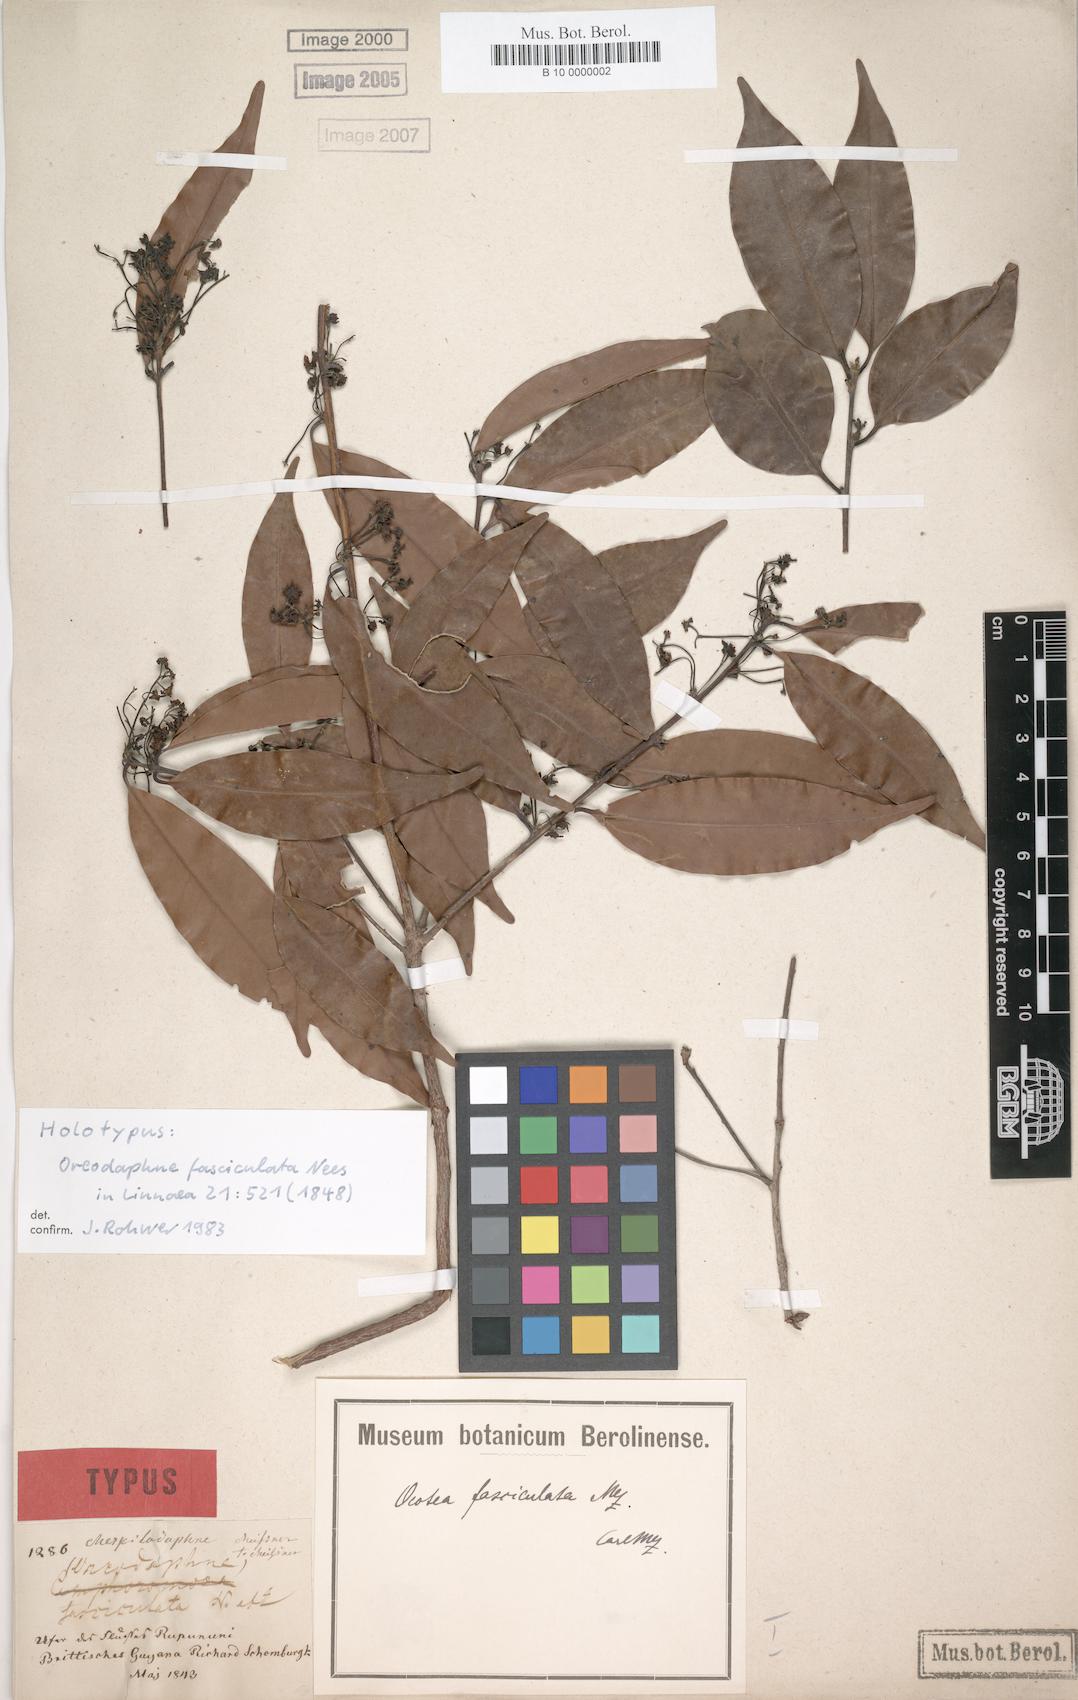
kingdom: Plantae
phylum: Tracheophyta
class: Magnoliopsida
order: Laurales
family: Lauraceae
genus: Mespilodaphne
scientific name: Mespilodaphne fasciculata
